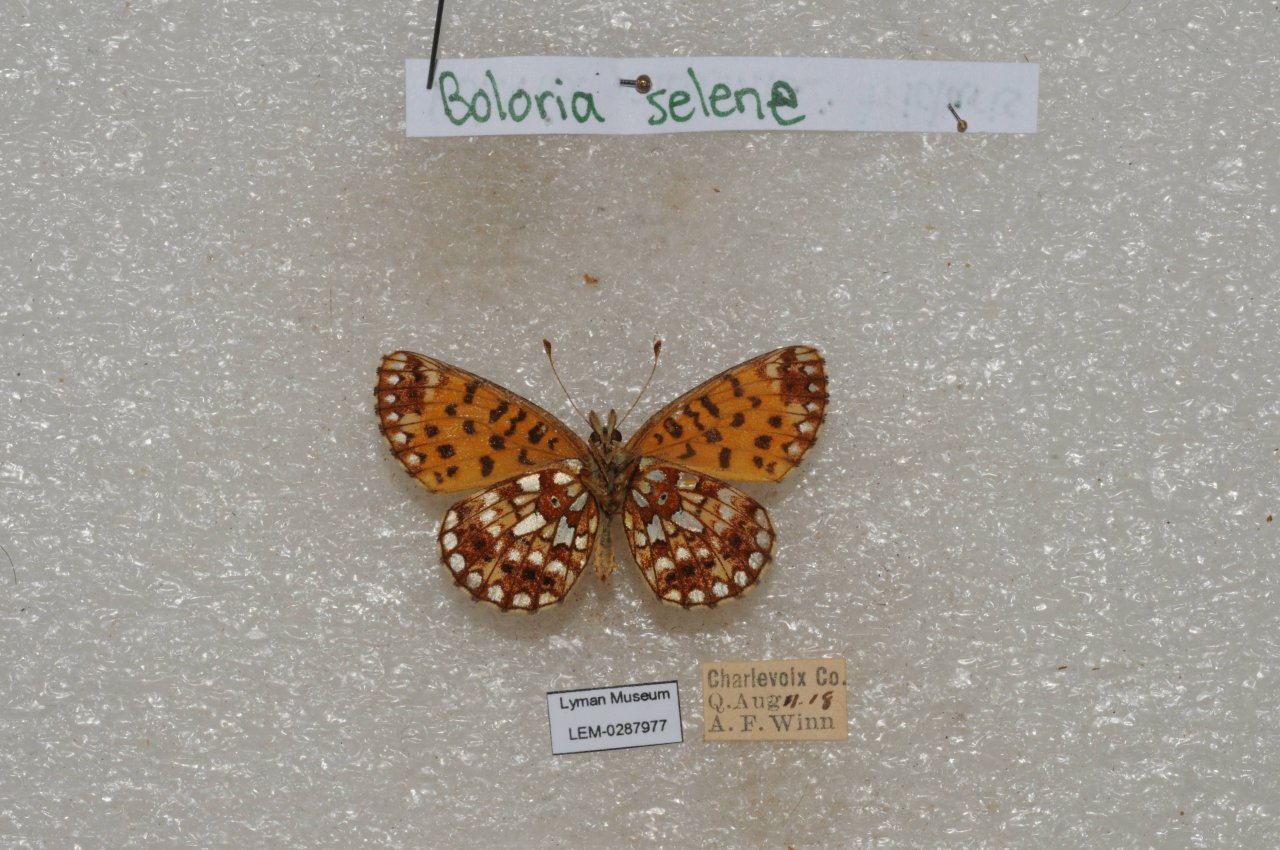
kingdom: Animalia
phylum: Arthropoda
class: Insecta
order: Lepidoptera
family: Nymphalidae
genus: Boloria
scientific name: Boloria selene
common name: Silver-bordered Fritillary
